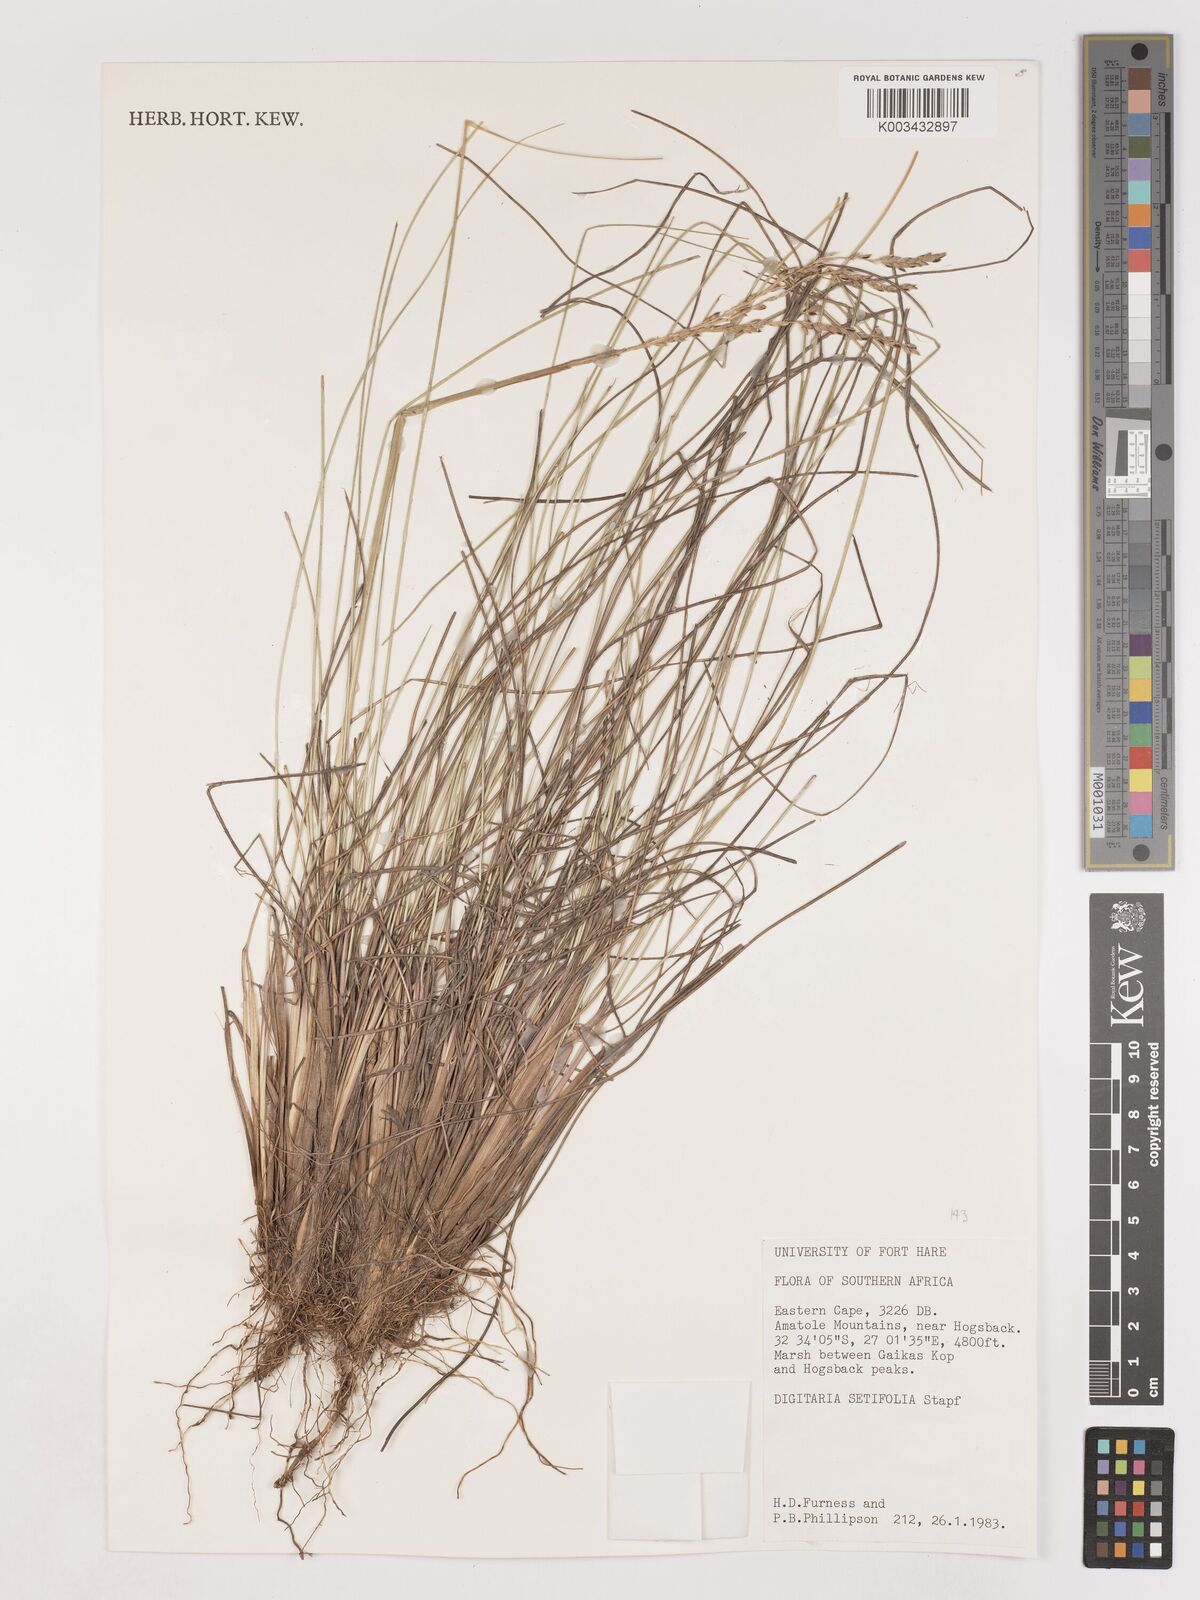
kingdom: Plantae
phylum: Tracheophyta
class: Liliopsida
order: Poales
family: Poaceae
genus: Digitaria
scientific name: Digitaria setifolia
